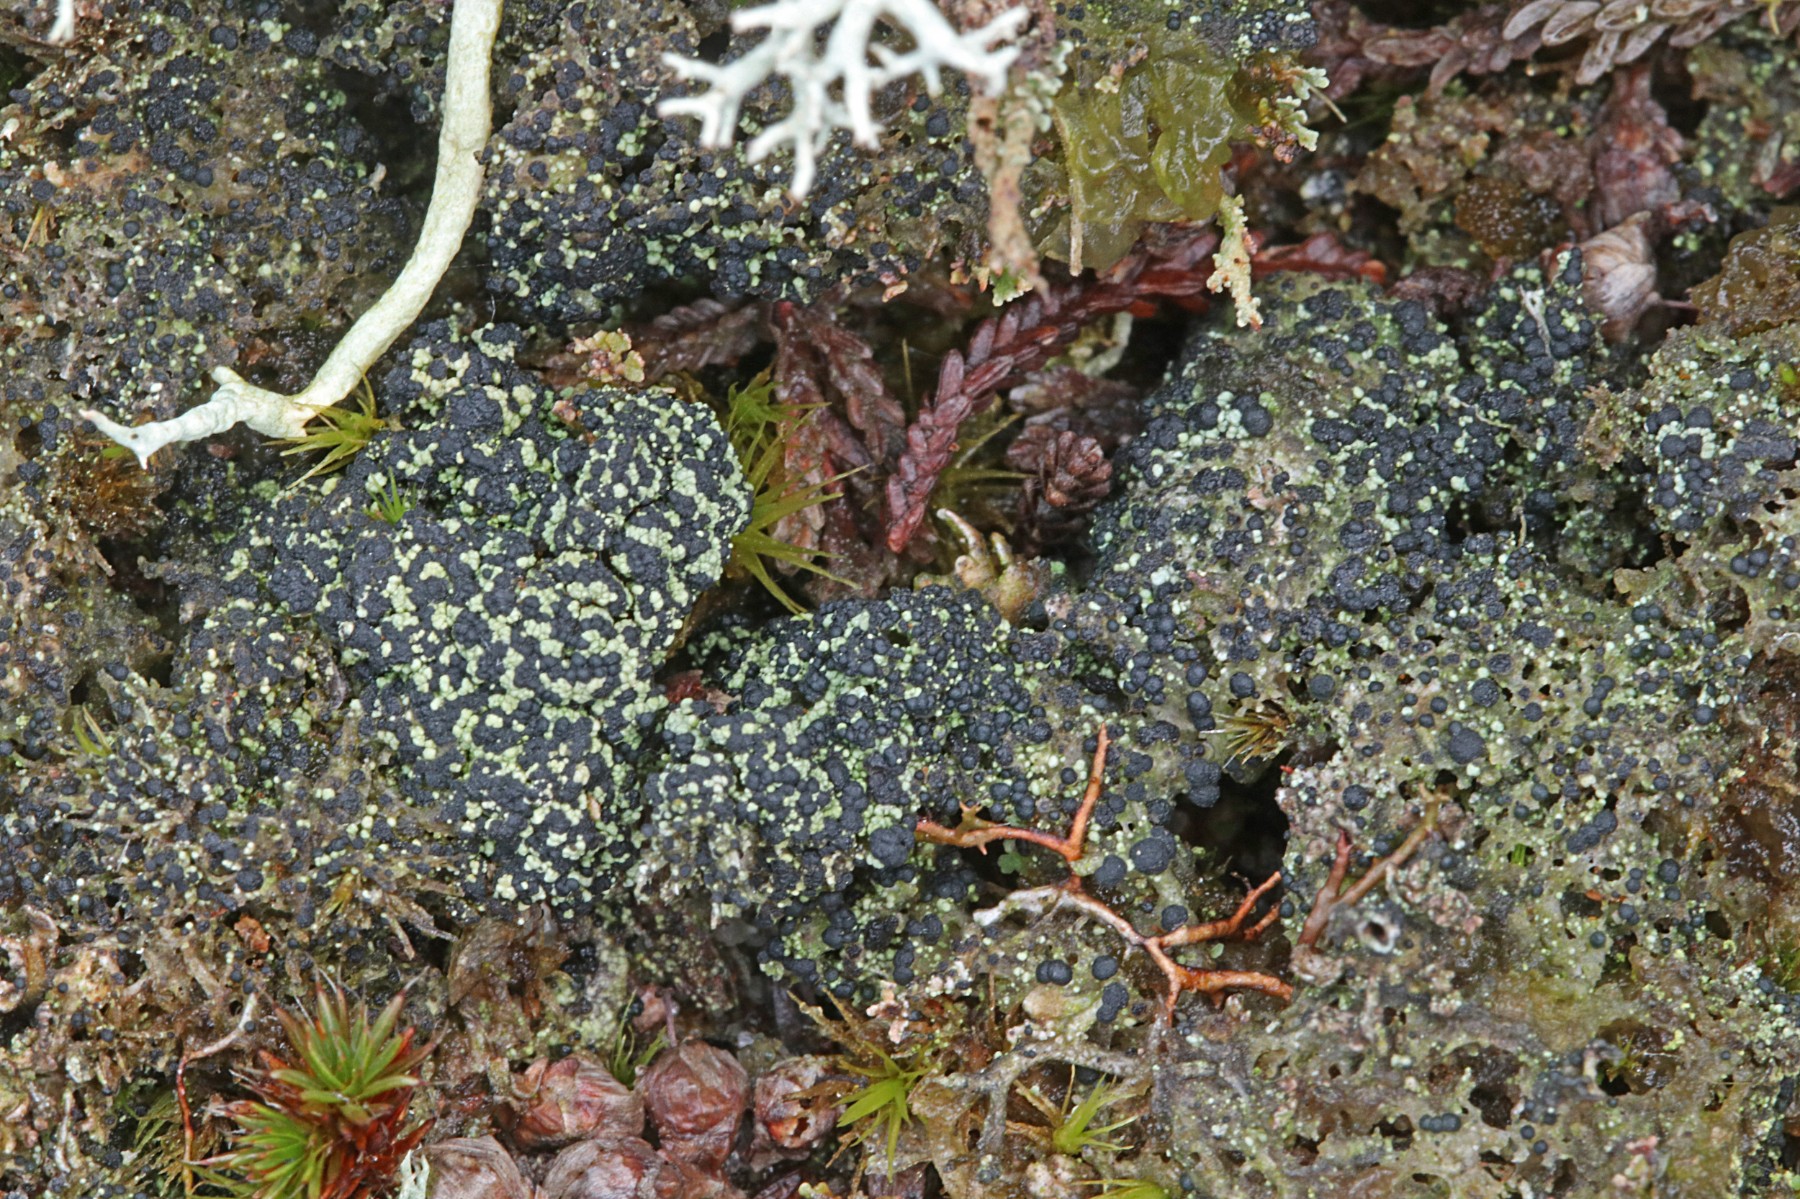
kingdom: Fungi
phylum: Ascomycota
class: Lecanoromycetes
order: Lecanorales
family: Byssolomataceae
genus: Micarea
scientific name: Micarea lignaria
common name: tørve-knaplav
